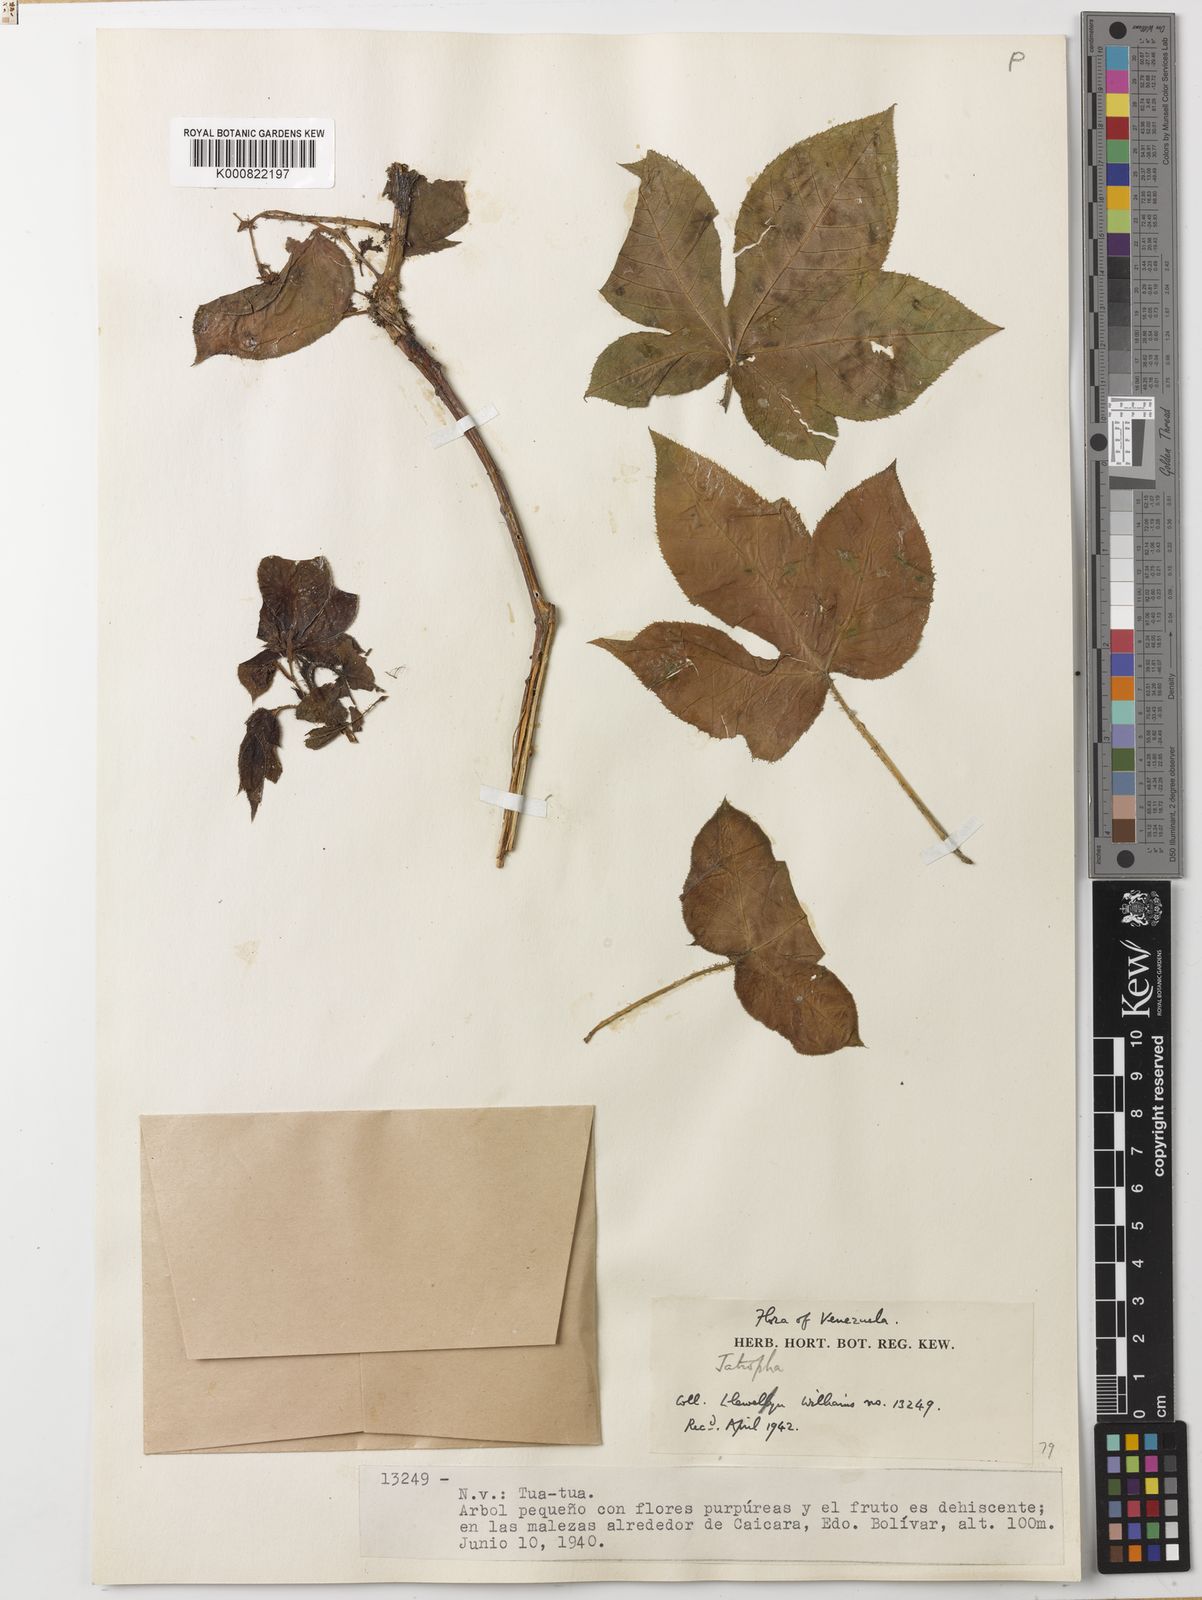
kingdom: Plantae
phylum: Tracheophyta
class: Magnoliopsida
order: Malpighiales
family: Euphorbiaceae
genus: Jatropha
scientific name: Jatropha gossypiifolia
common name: Bellyache bush
